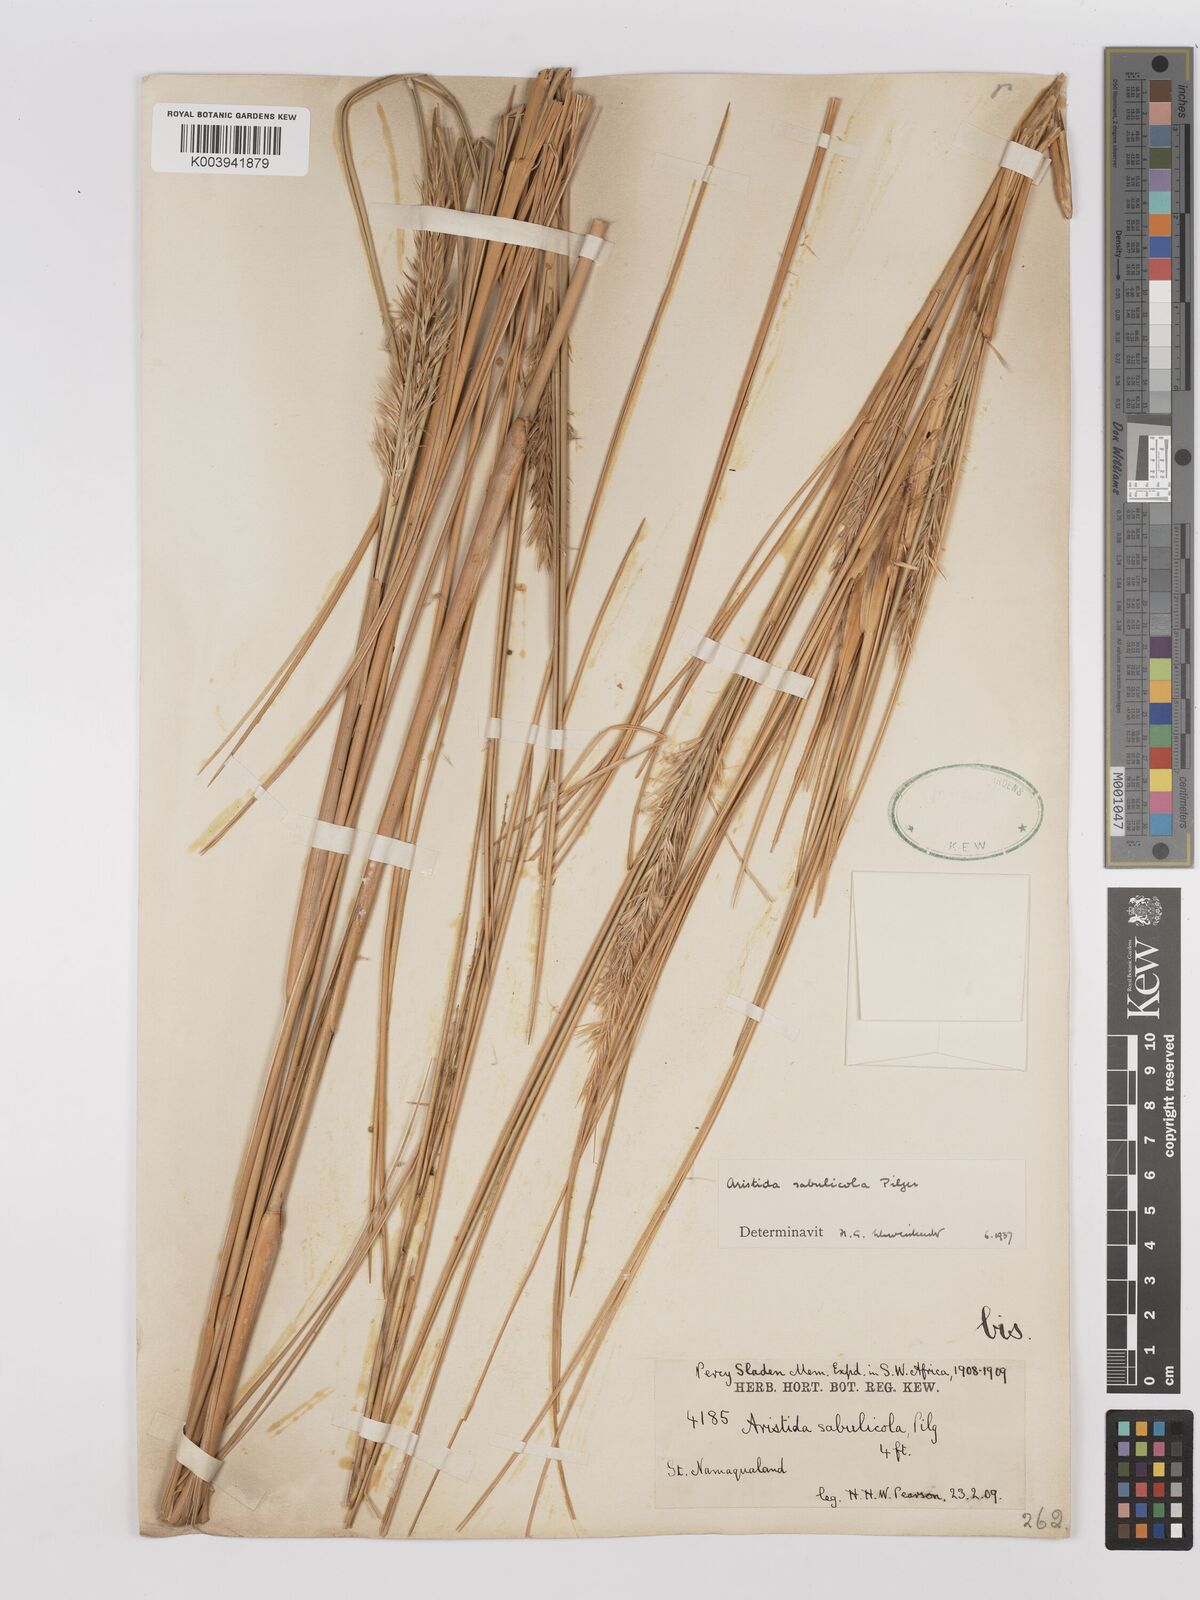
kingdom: Plantae
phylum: Tracheophyta
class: Liliopsida
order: Poales
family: Poaceae
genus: Stipagrostis
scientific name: Stipagrostis sabulicola
